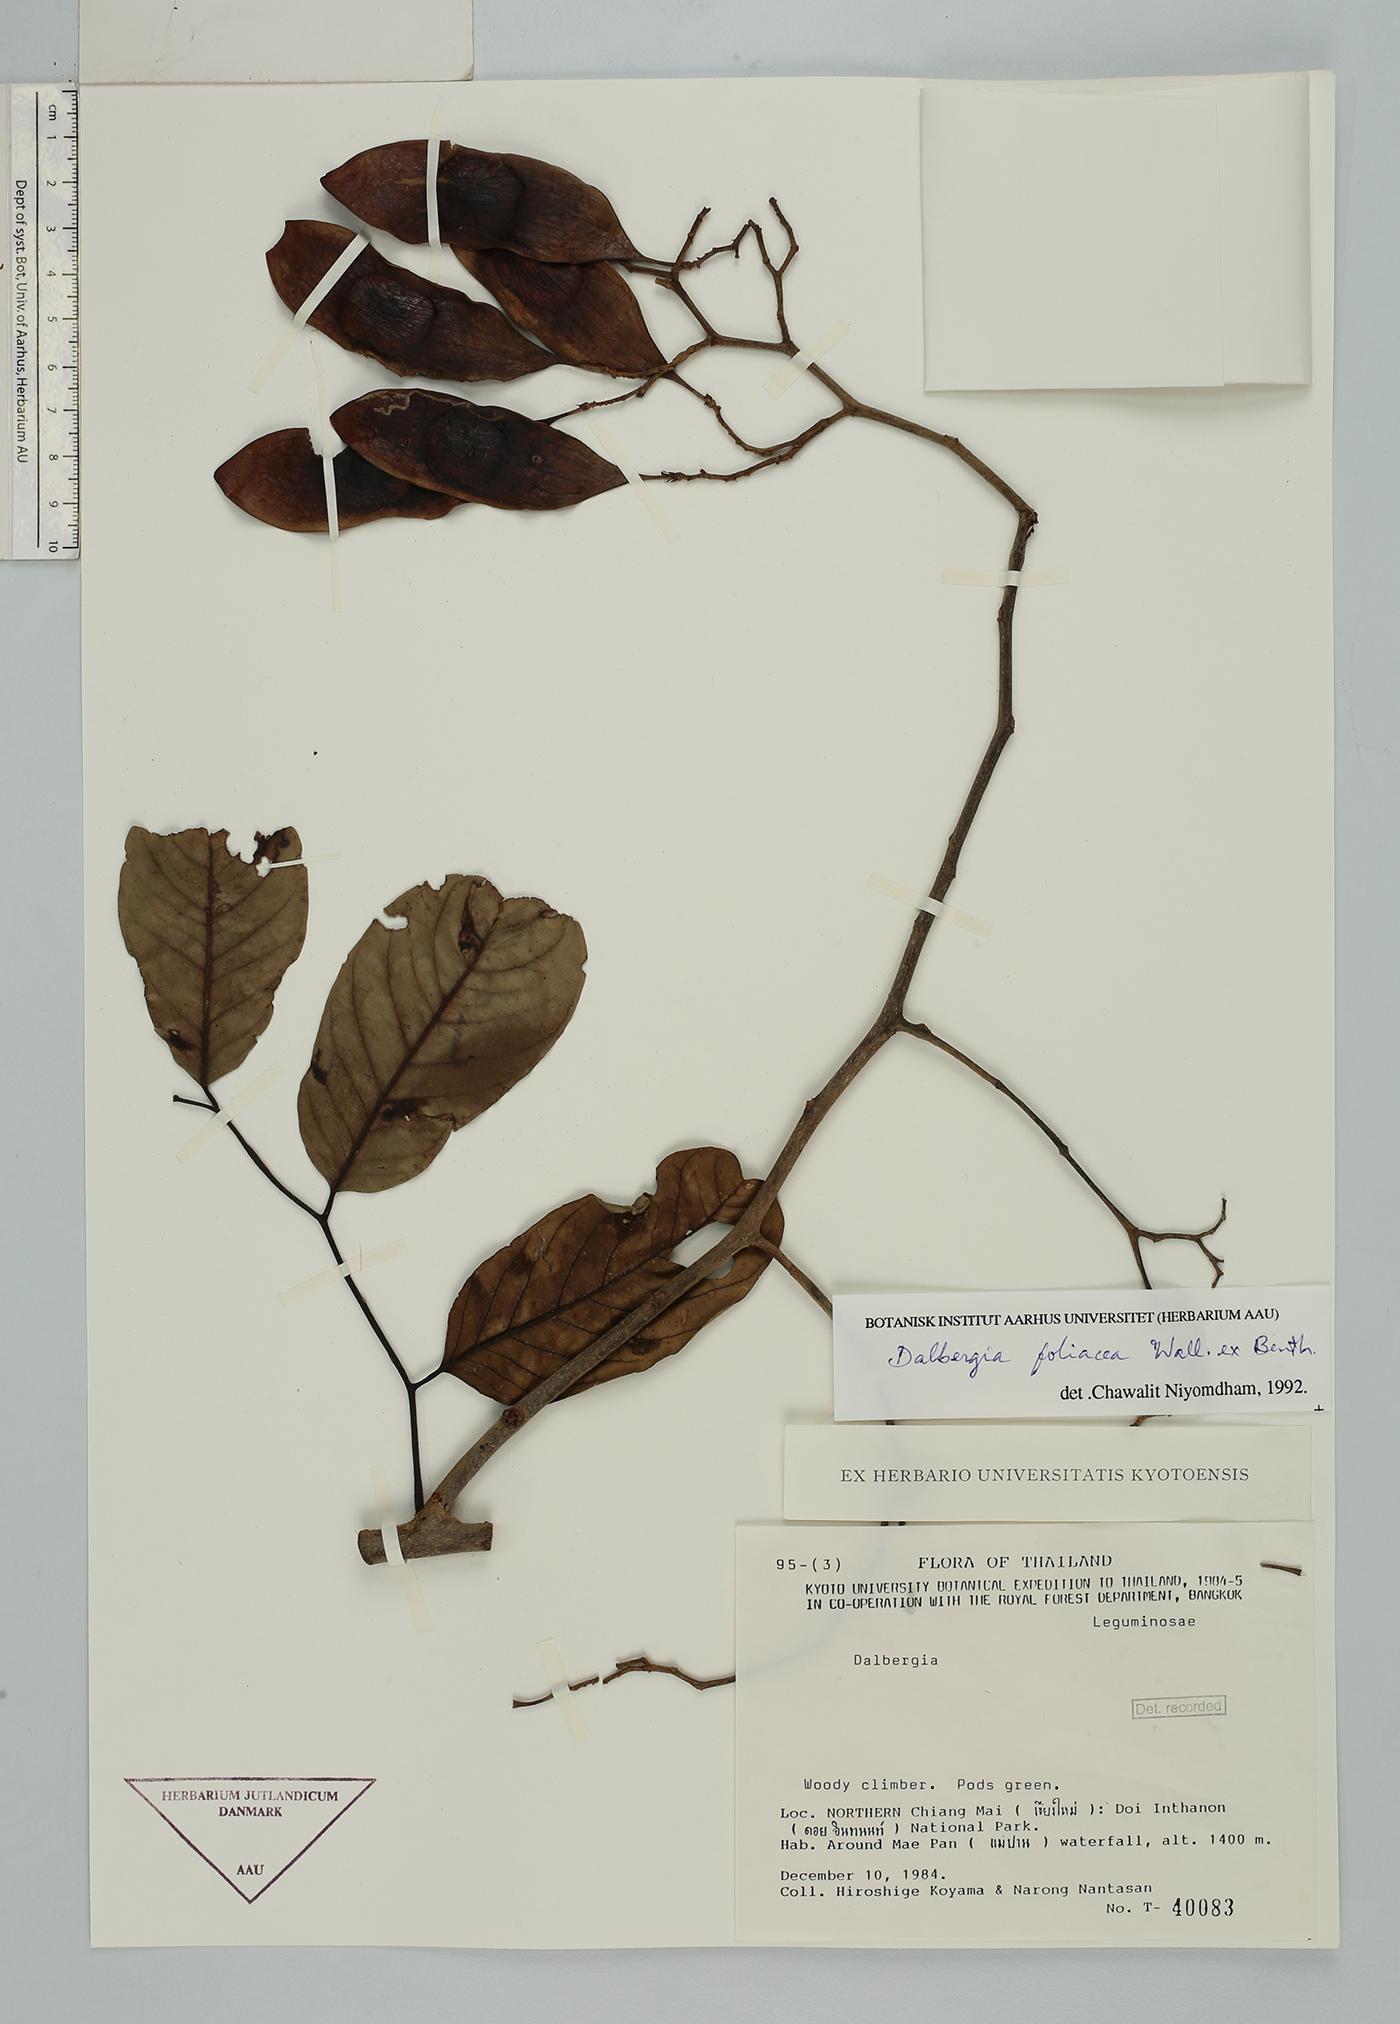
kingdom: Plantae
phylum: Tracheophyta
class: Magnoliopsida
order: Fabales
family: Fabaceae
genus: Dalbergia
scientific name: Dalbergia foliosa
